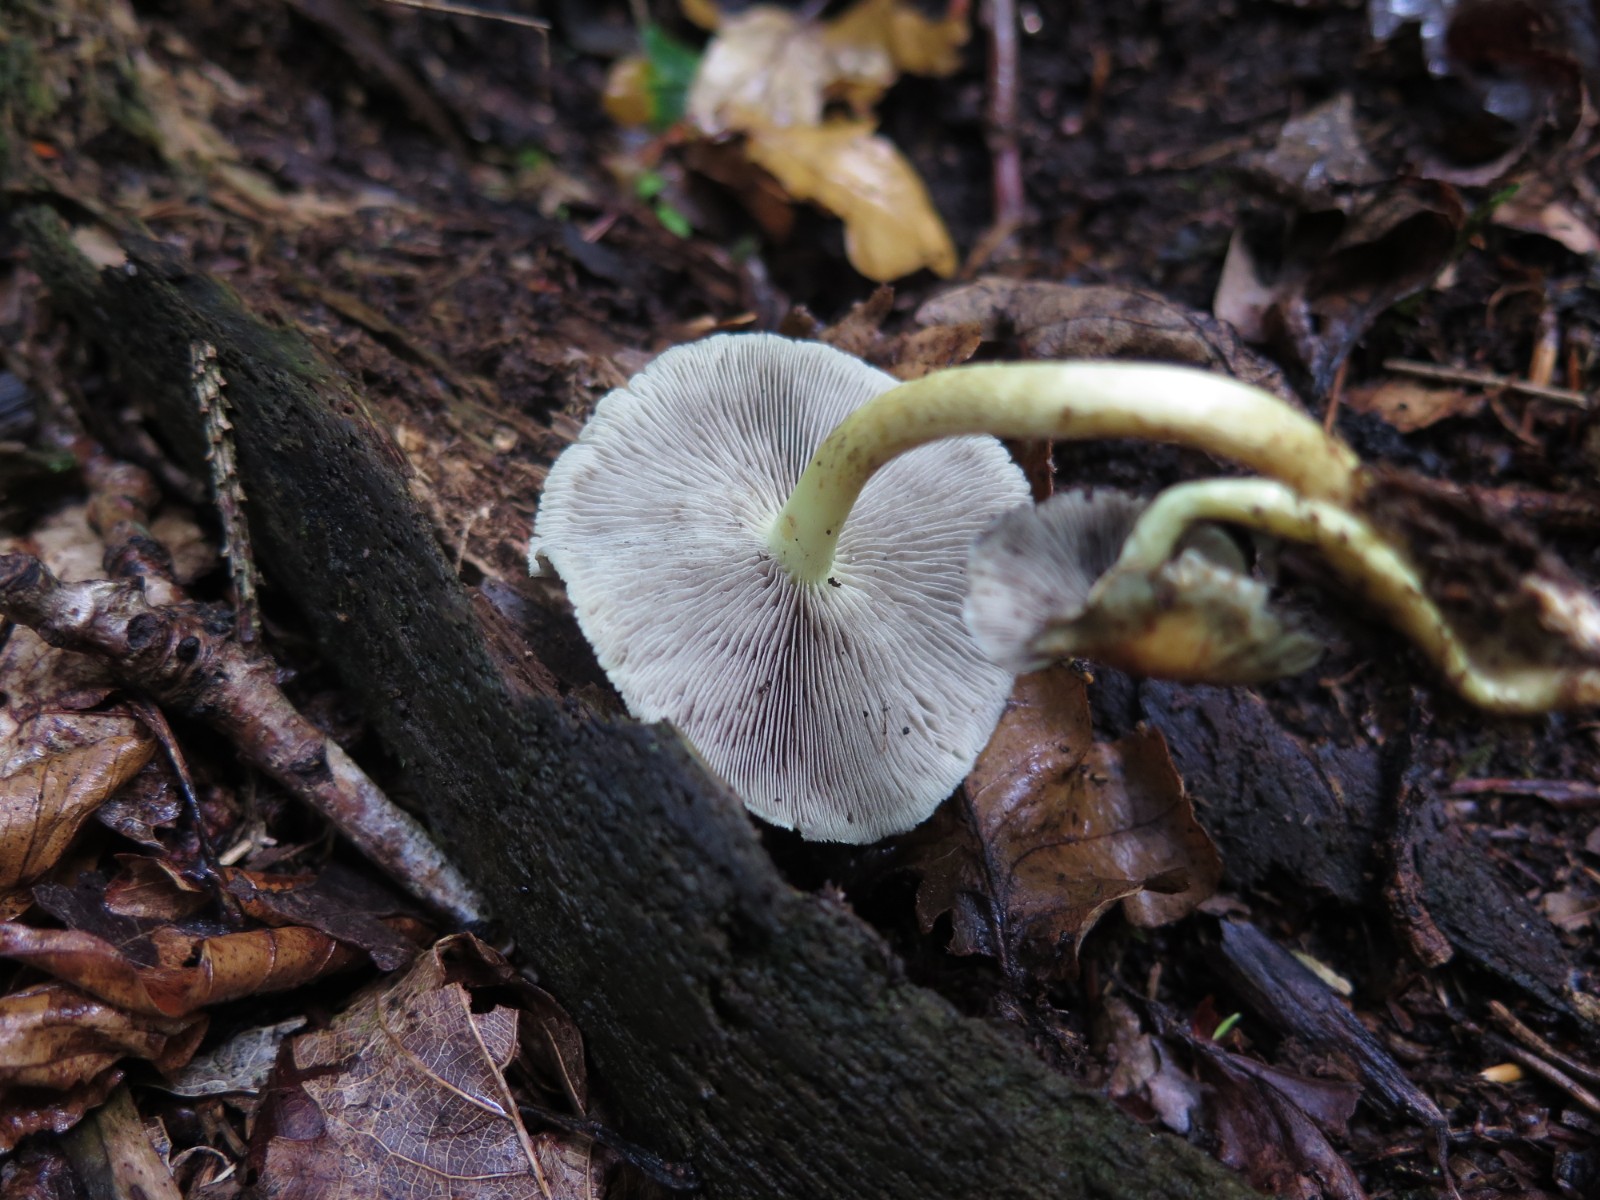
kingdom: Fungi
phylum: Basidiomycota
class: Agaricomycetes
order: Agaricales
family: Strophariaceae
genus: Hypholoma
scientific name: Hypholoma capnoides
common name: gran-svovlhat
